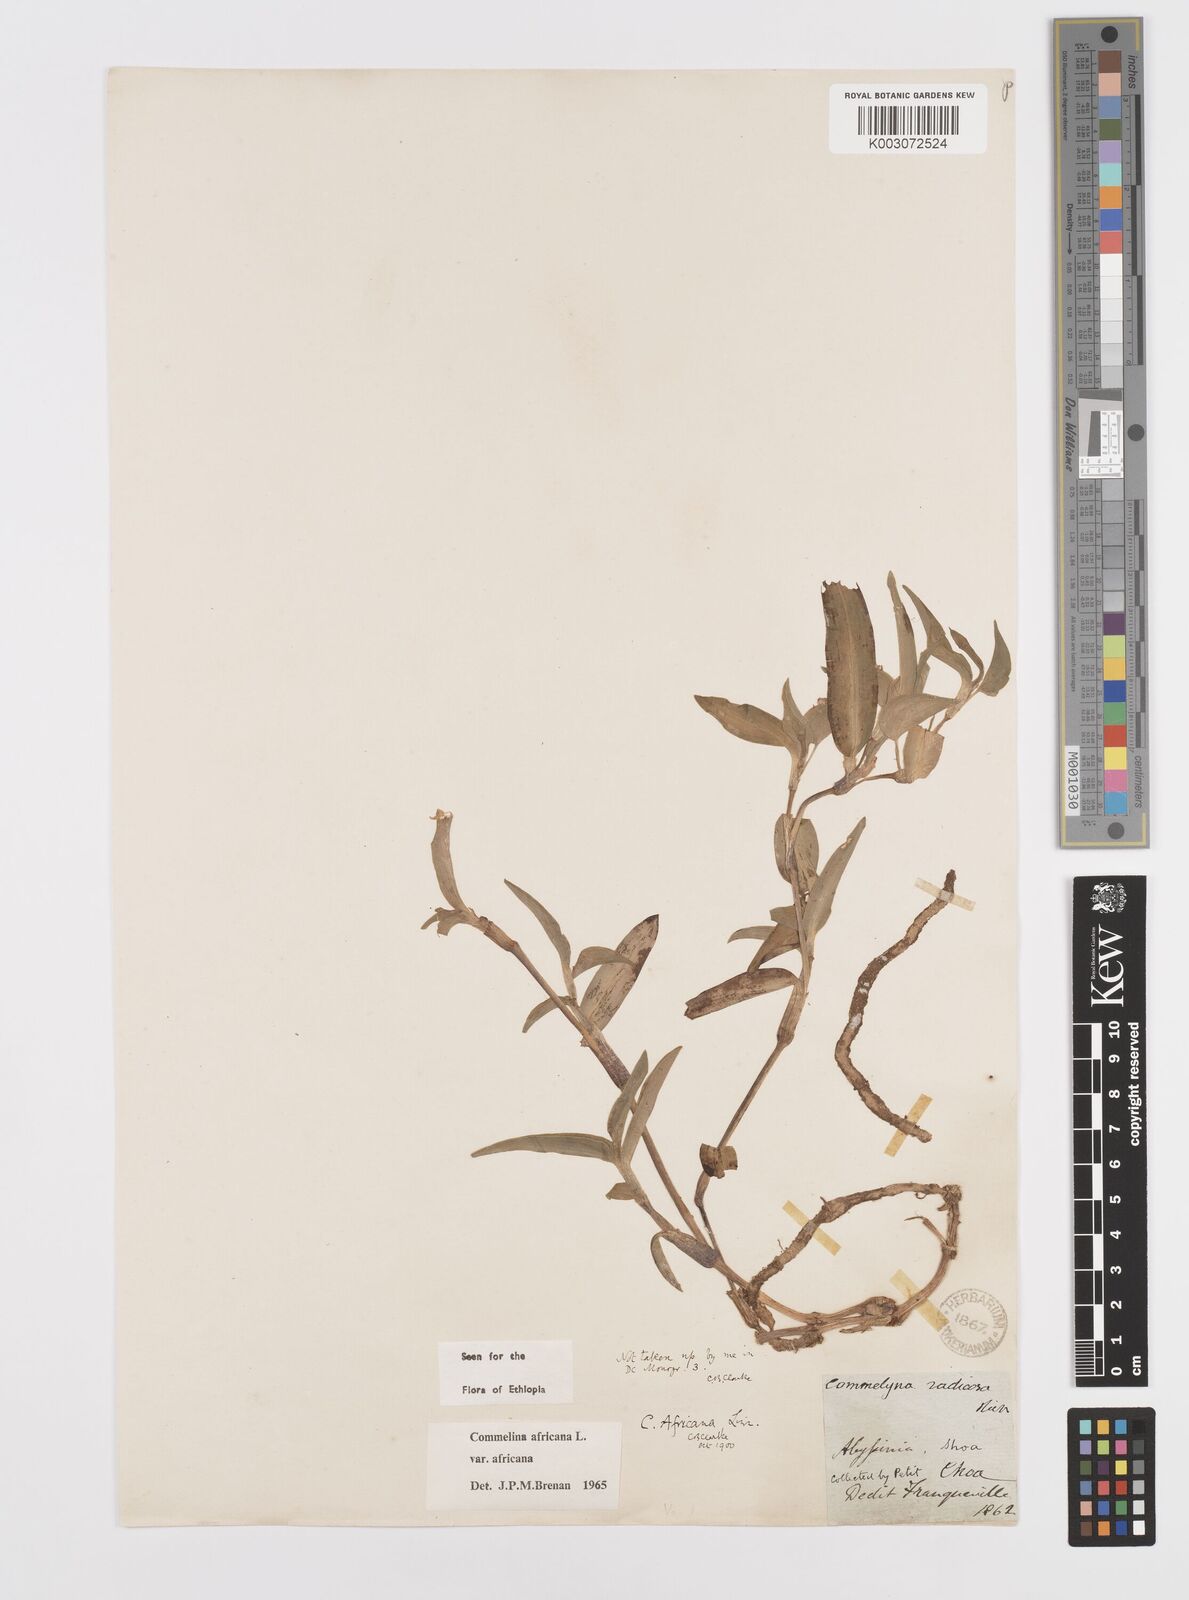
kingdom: Plantae
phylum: Tracheophyta
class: Liliopsida
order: Commelinales
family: Commelinaceae
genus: Commelina
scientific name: Commelina africana
